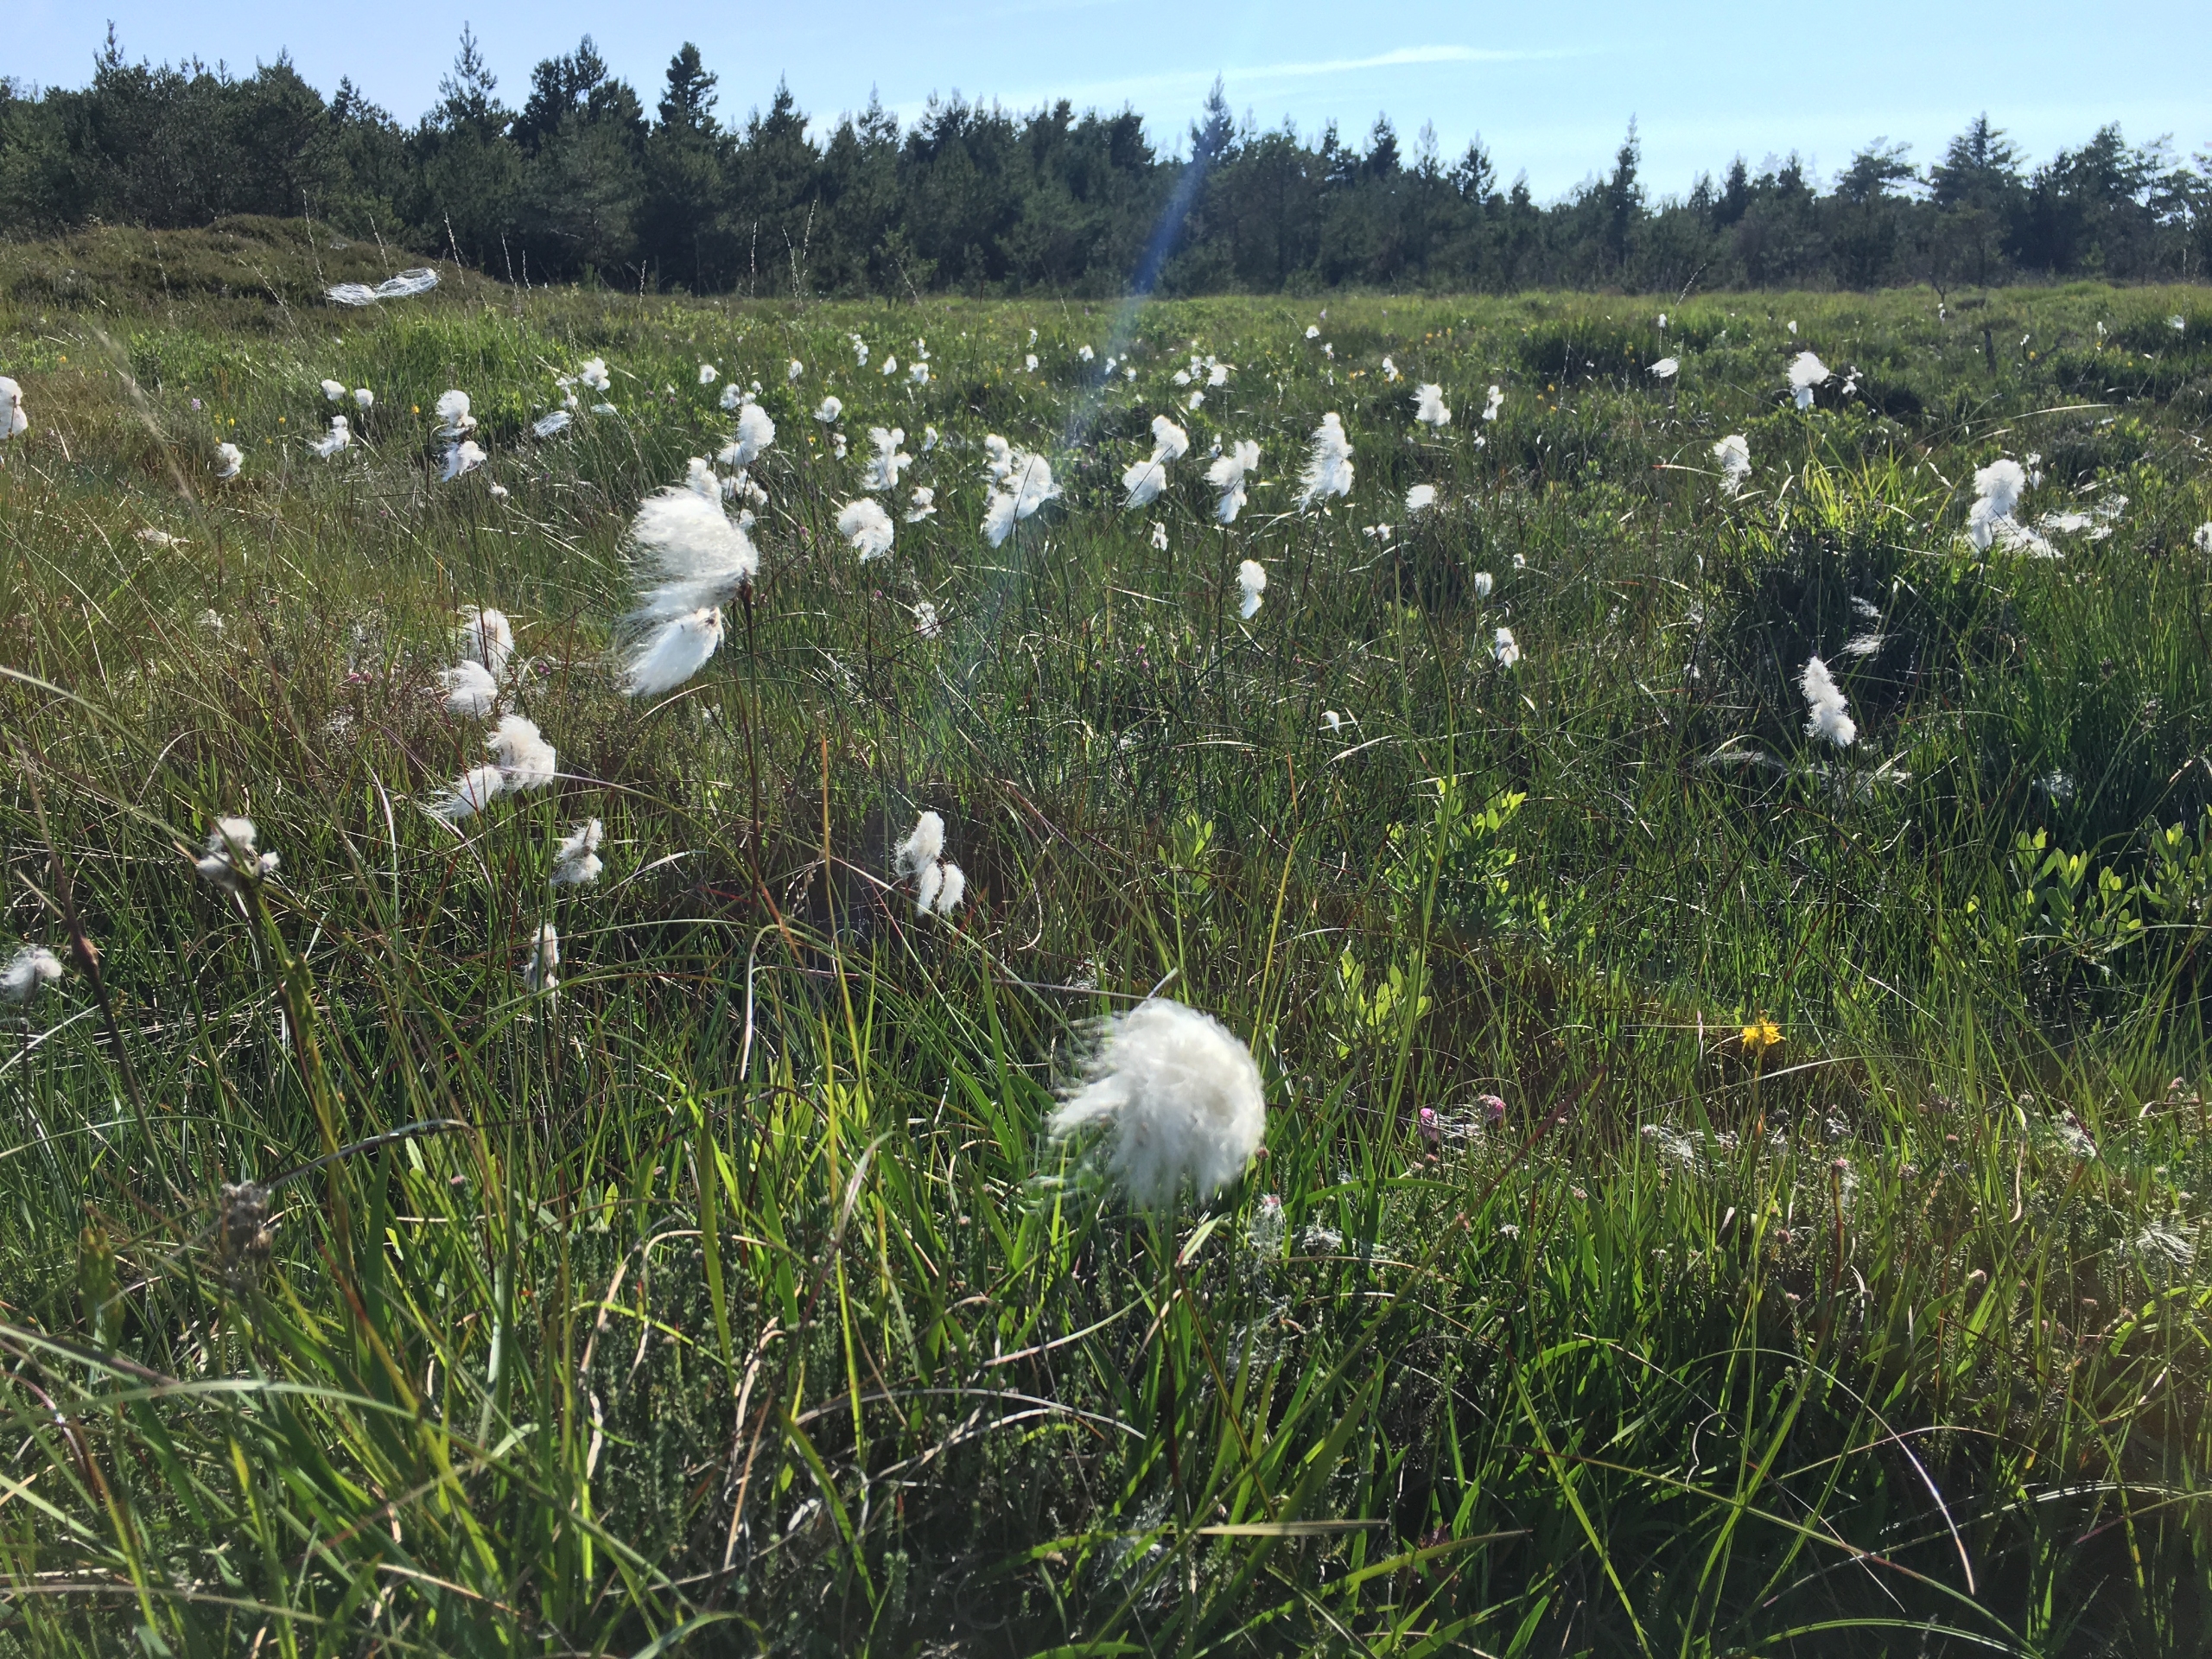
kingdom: Plantae
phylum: Tracheophyta
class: Liliopsida
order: Poales
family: Cyperaceae
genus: Eriophorum
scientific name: Eriophorum angustifolium
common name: Smalbladet kæruld
